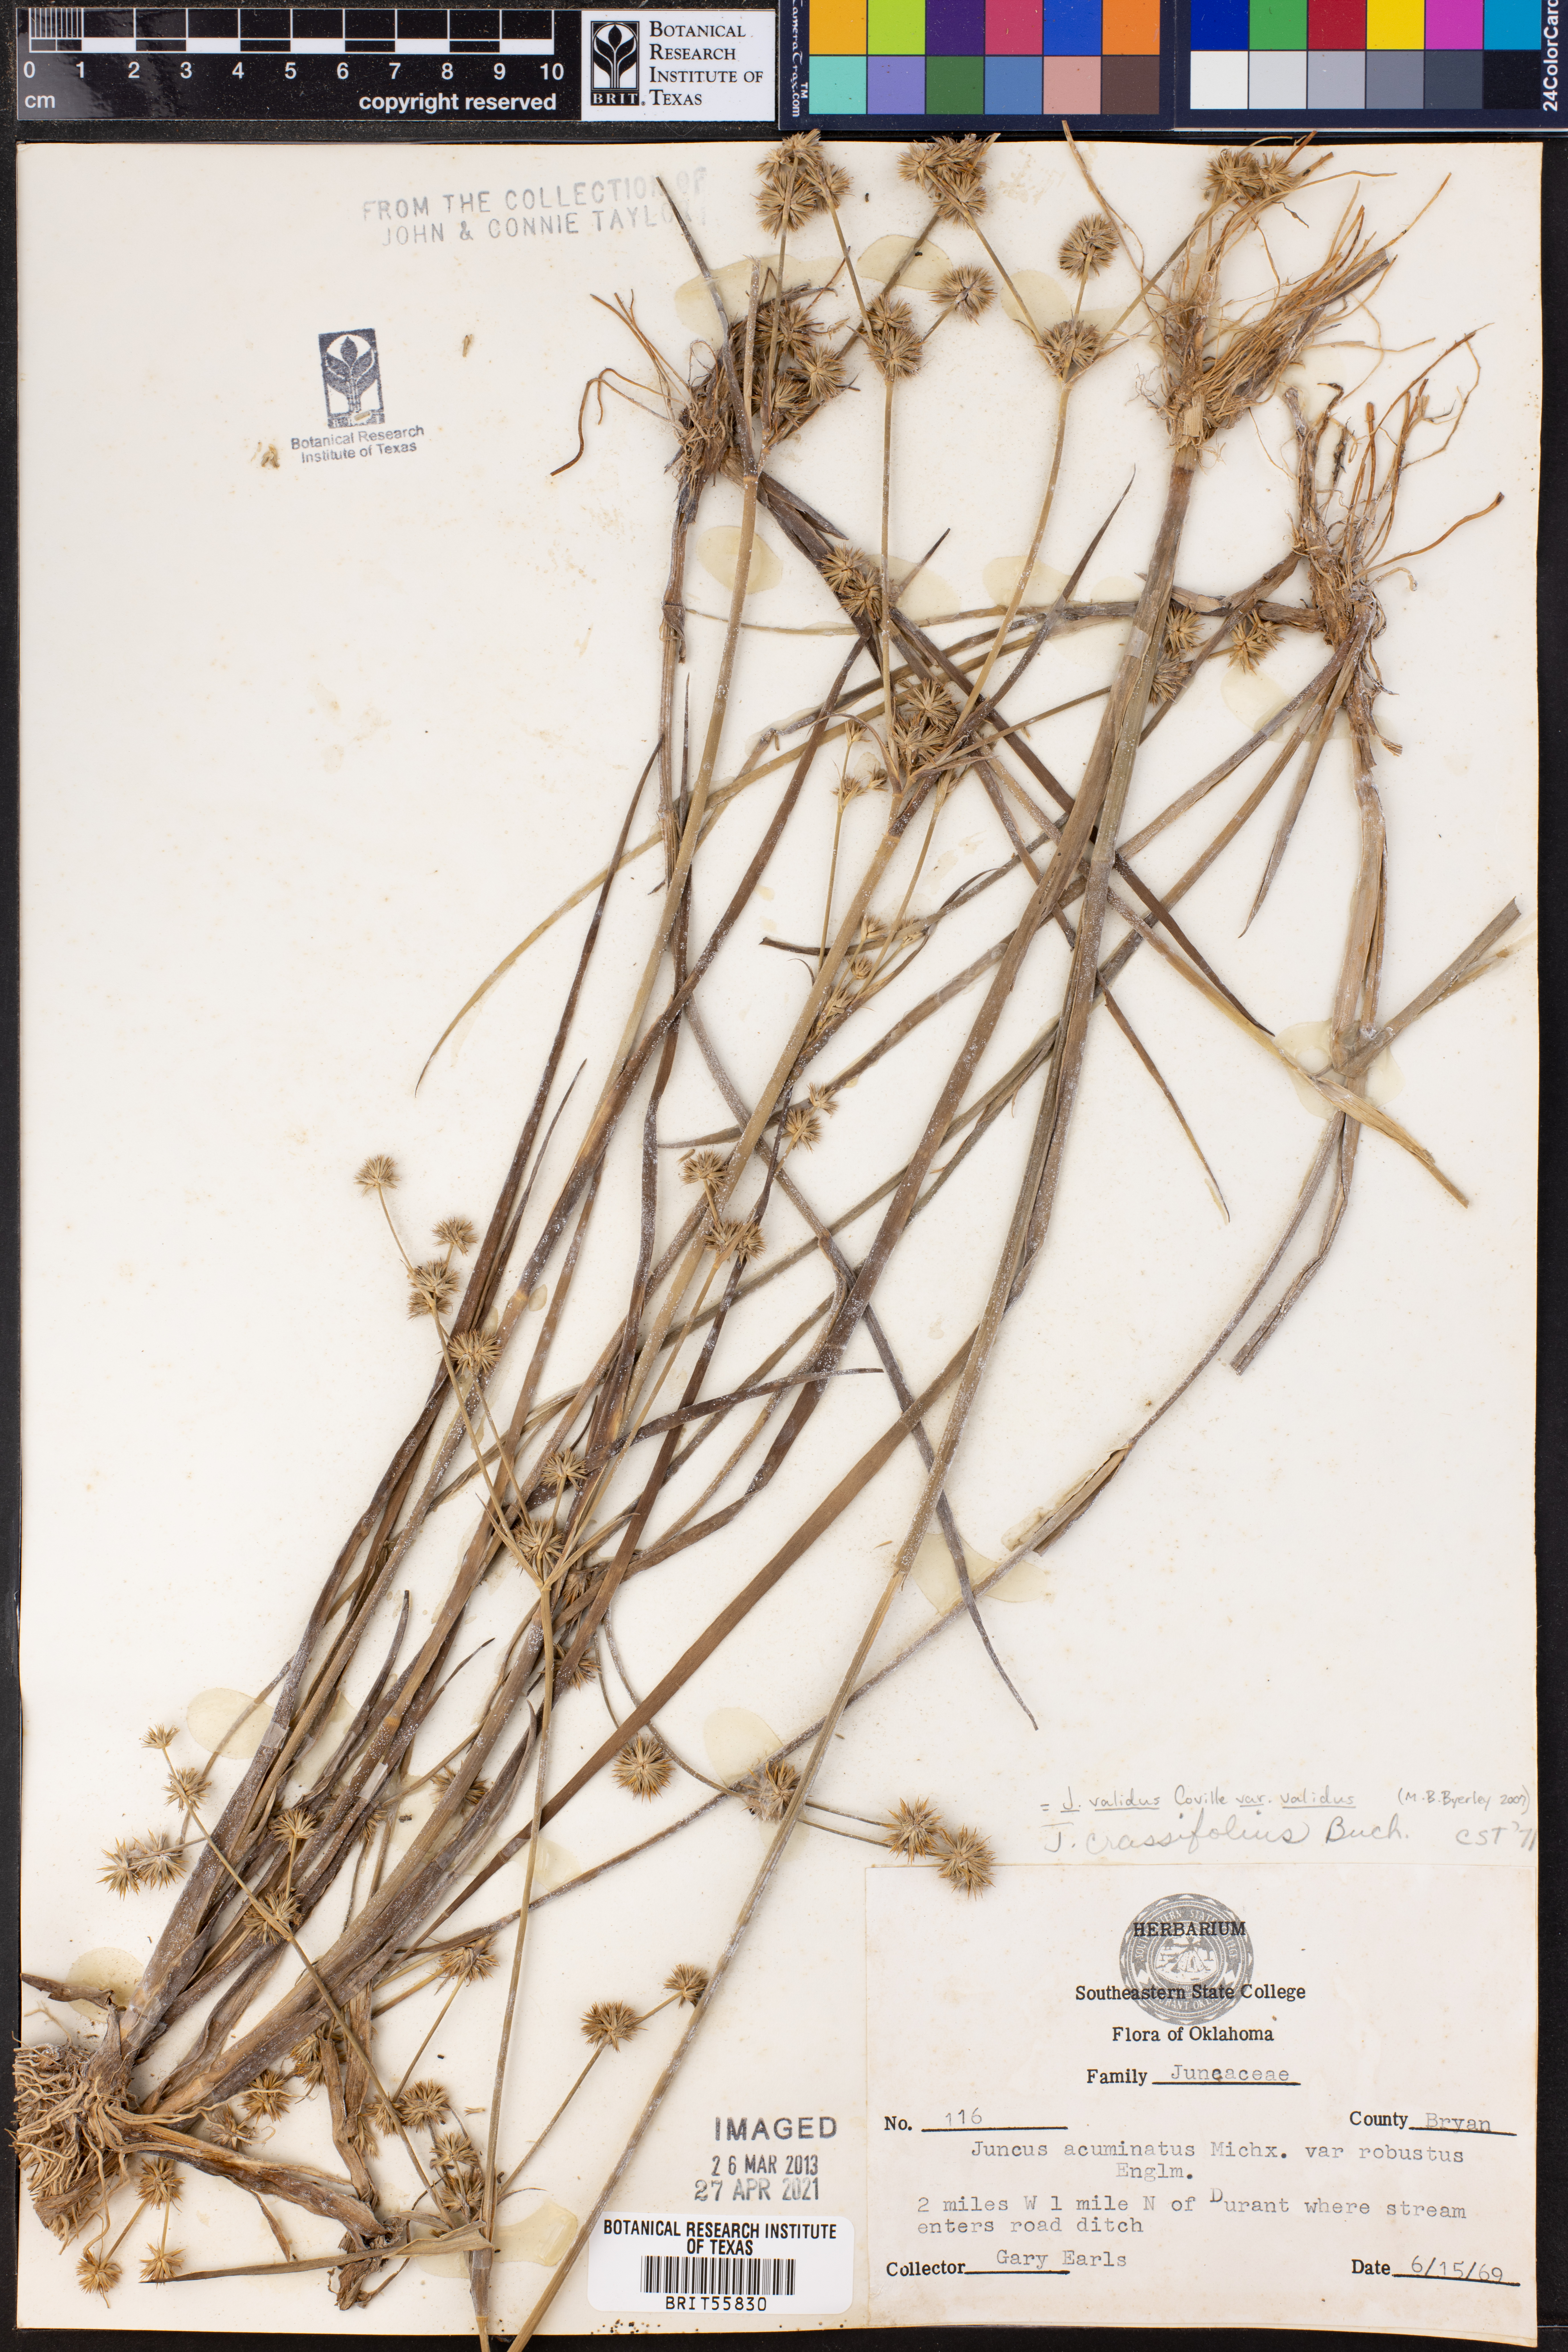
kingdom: Plantae
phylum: Tracheophyta
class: Liliopsida
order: Poales
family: Juncaceae
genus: Juncus
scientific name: Juncus validus
